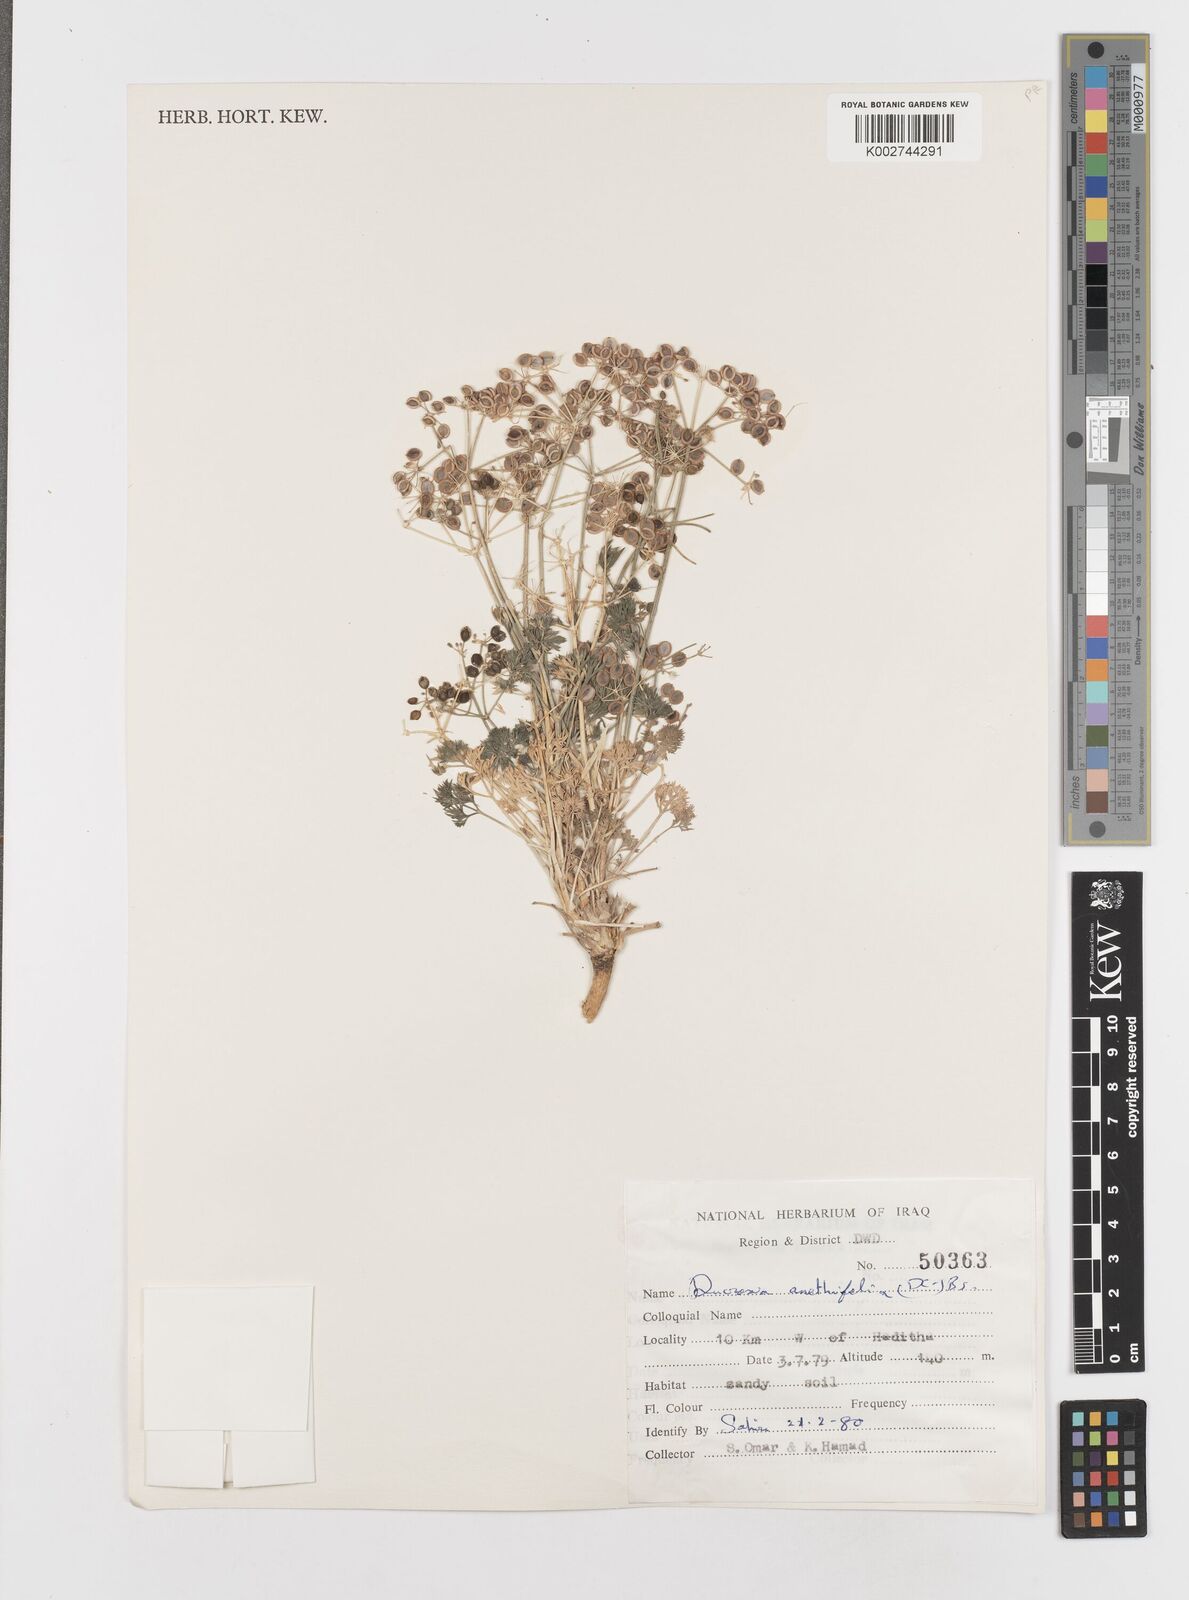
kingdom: Plantae
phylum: Tracheophyta
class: Magnoliopsida
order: Apiales
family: Apiaceae
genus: Ducrosia
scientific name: Ducrosia anethifolia
